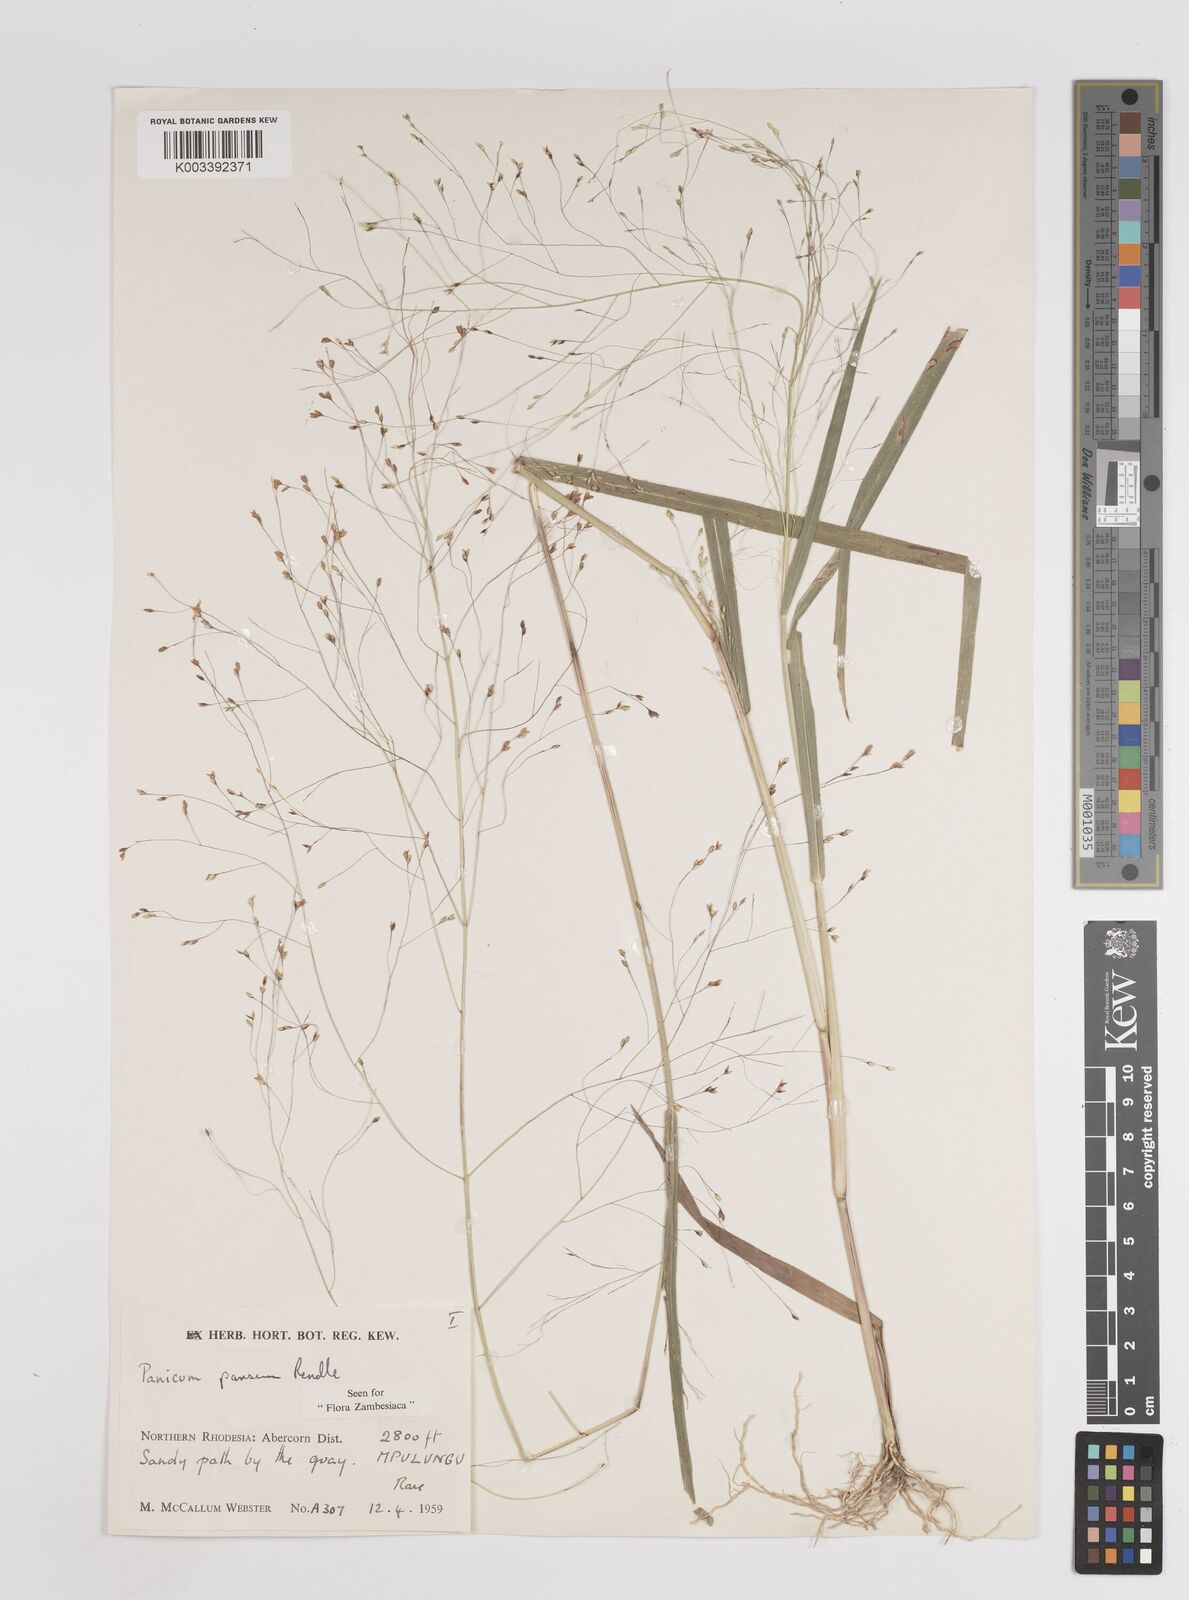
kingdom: Plantae
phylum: Tracheophyta
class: Liliopsida
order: Poales
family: Poaceae
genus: Panicum
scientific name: Panicum pansum
